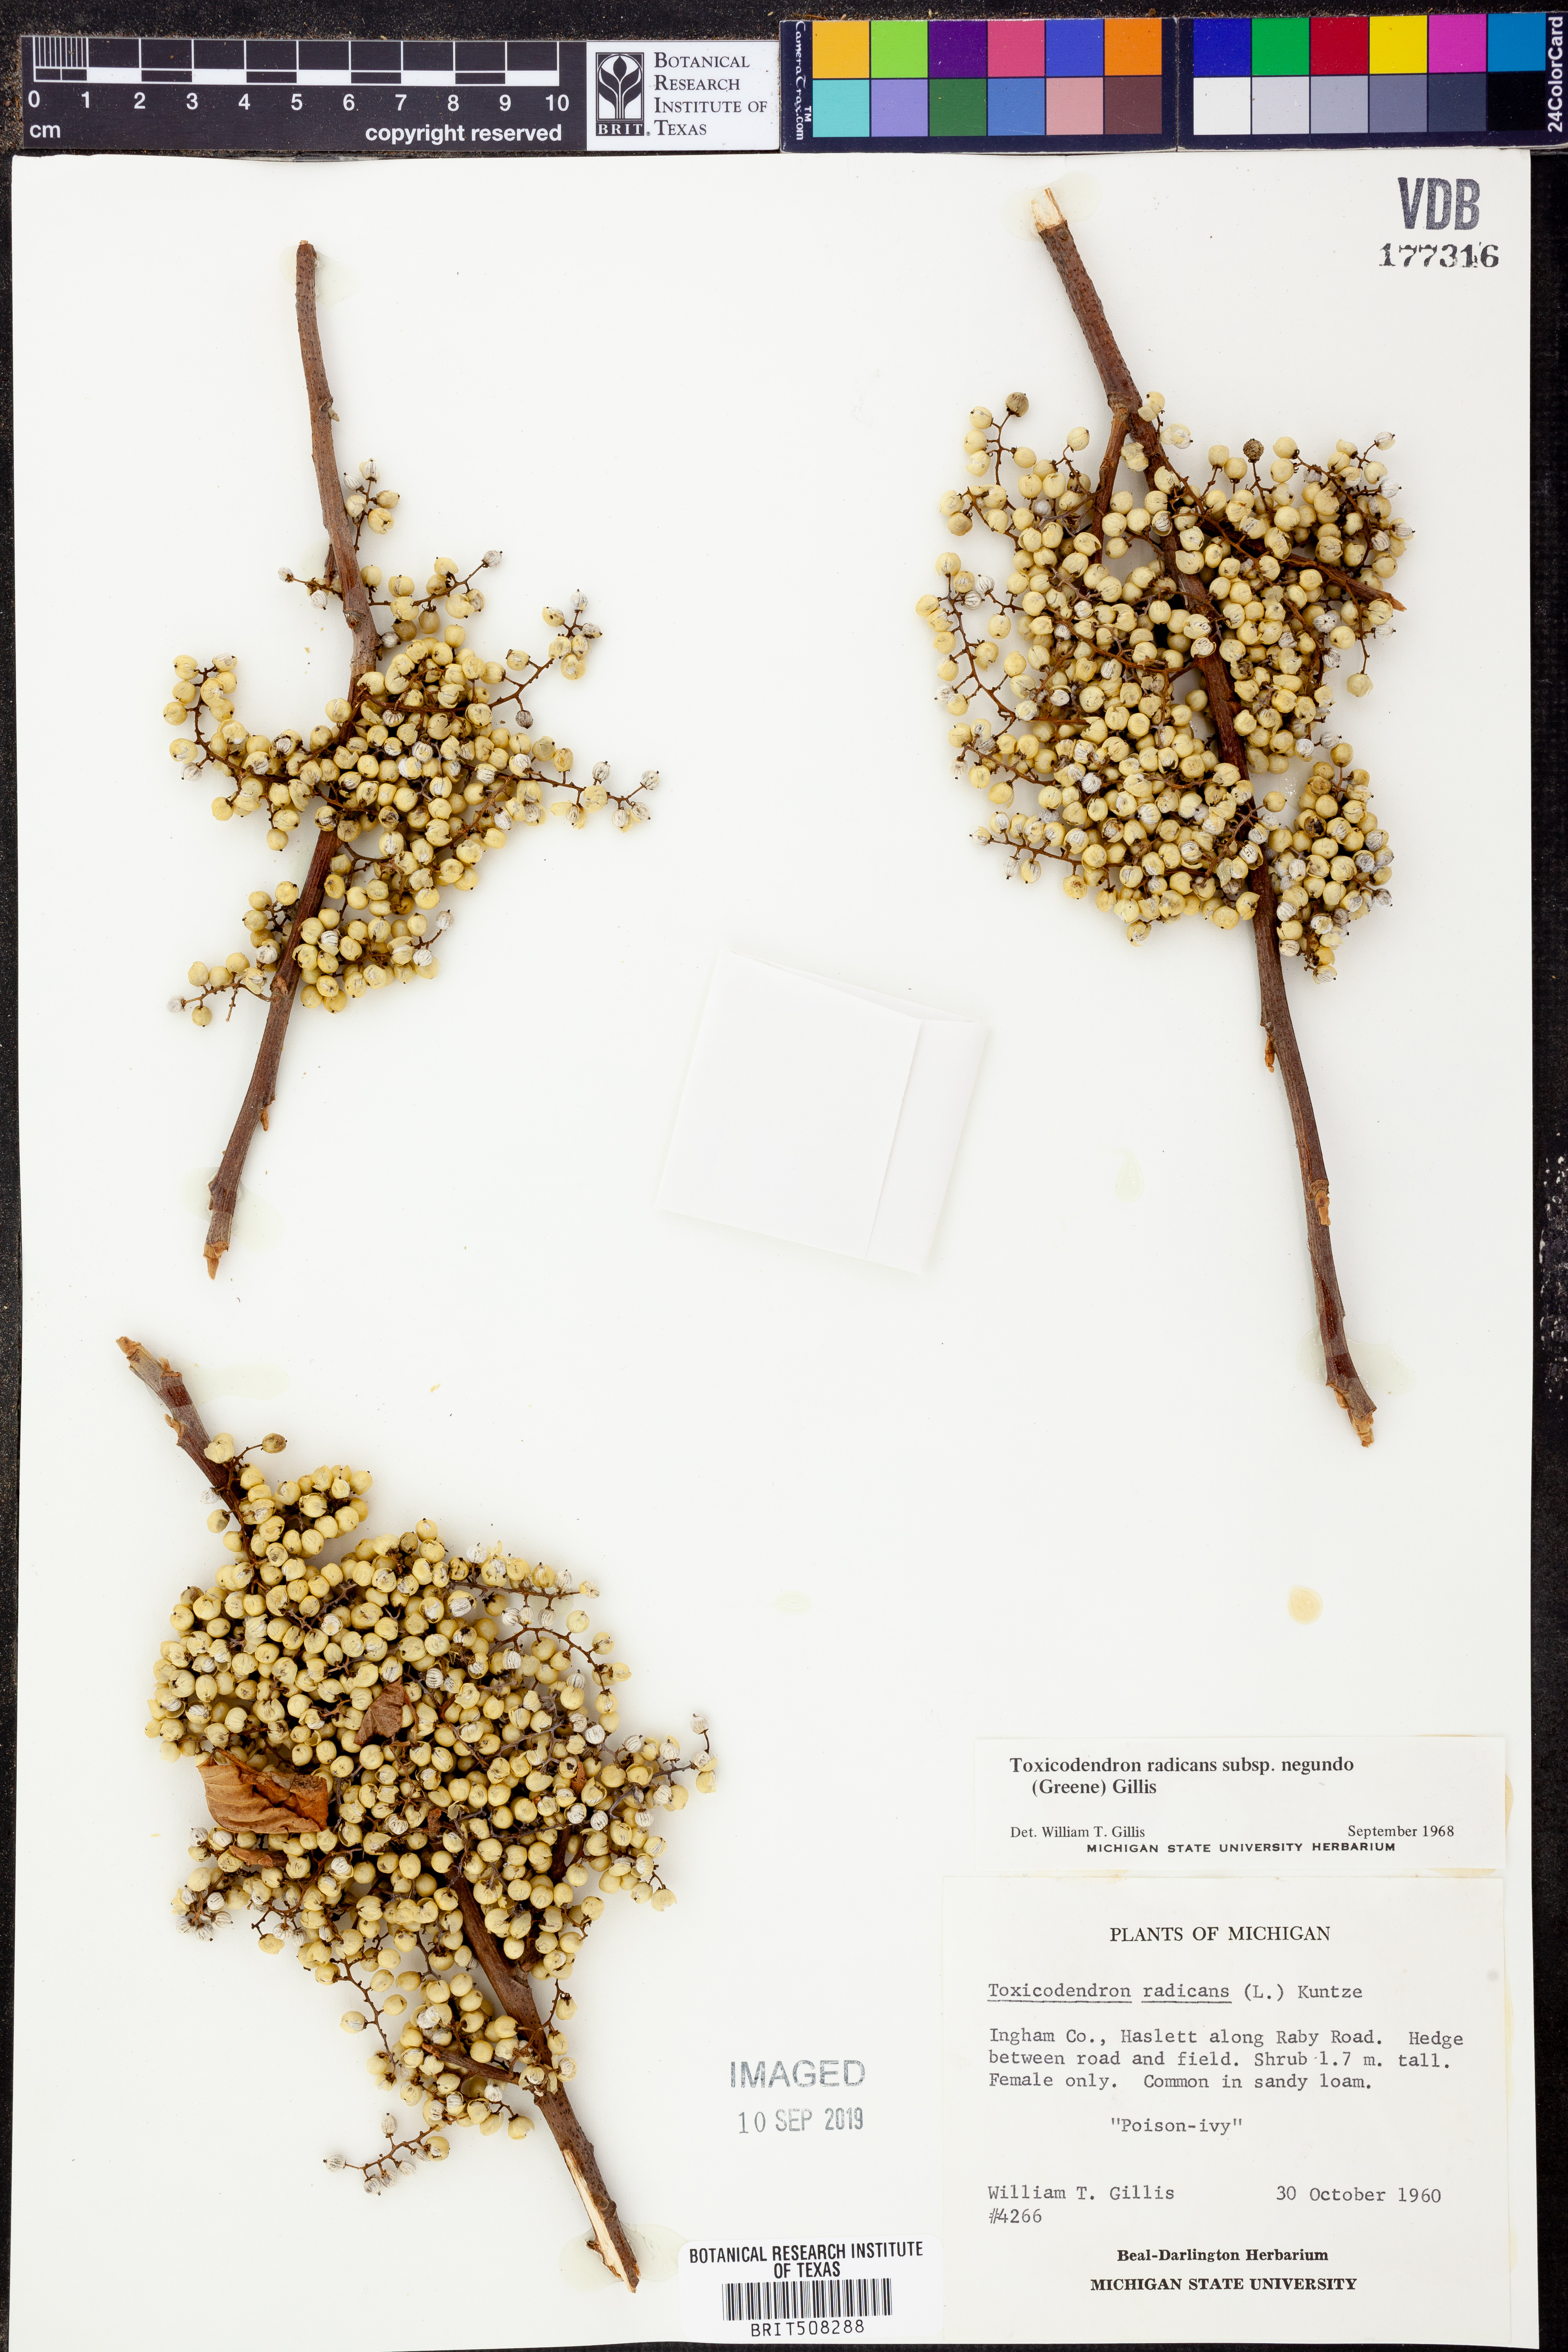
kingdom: Plantae
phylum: Tracheophyta
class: Magnoliopsida
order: Sapindales
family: Anacardiaceae
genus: Toxicodendron
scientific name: Toxicodendron radicans
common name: Poison ivy
